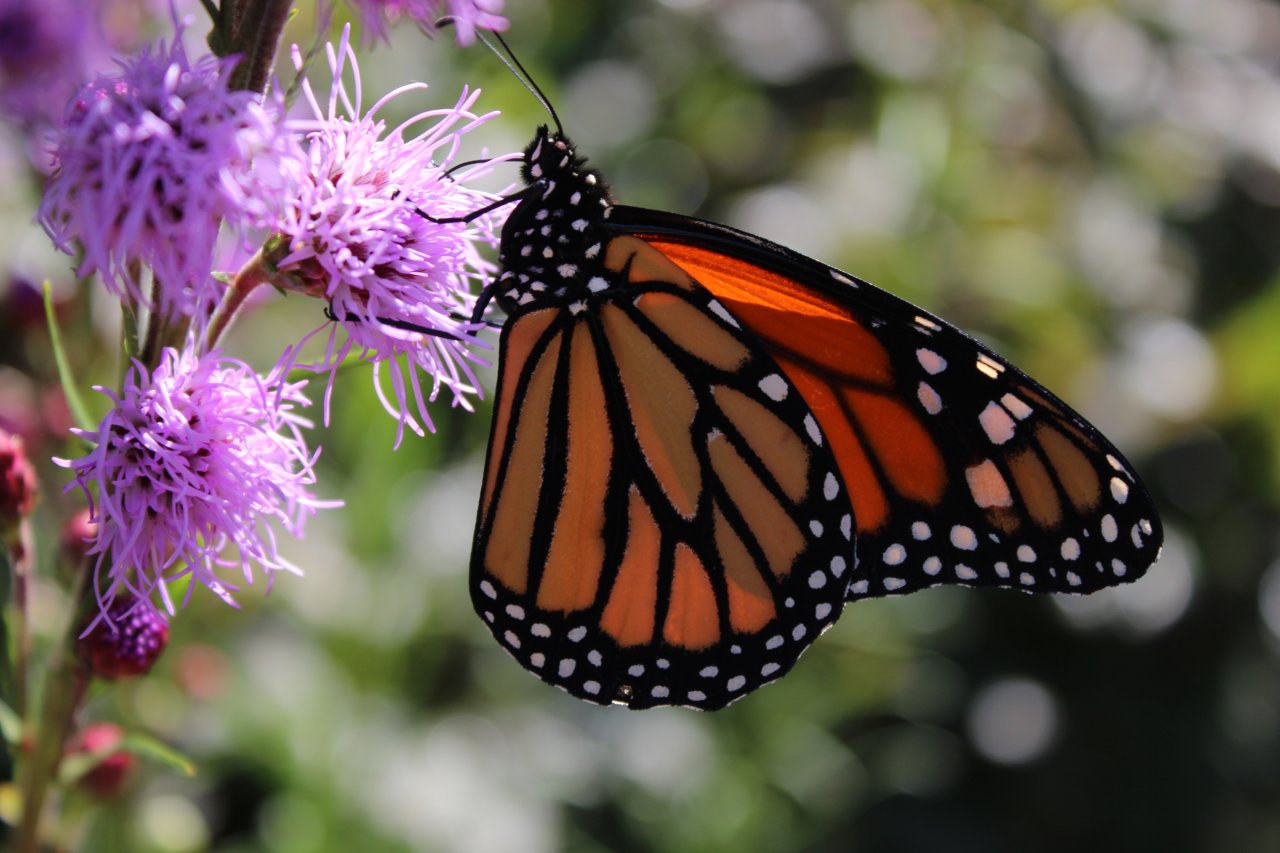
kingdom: Animalia
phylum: Arthropoda
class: Insecta
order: Lepidoptera
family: Nymphalidae
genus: Danaus
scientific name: Danaus plexippus
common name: Monarch
